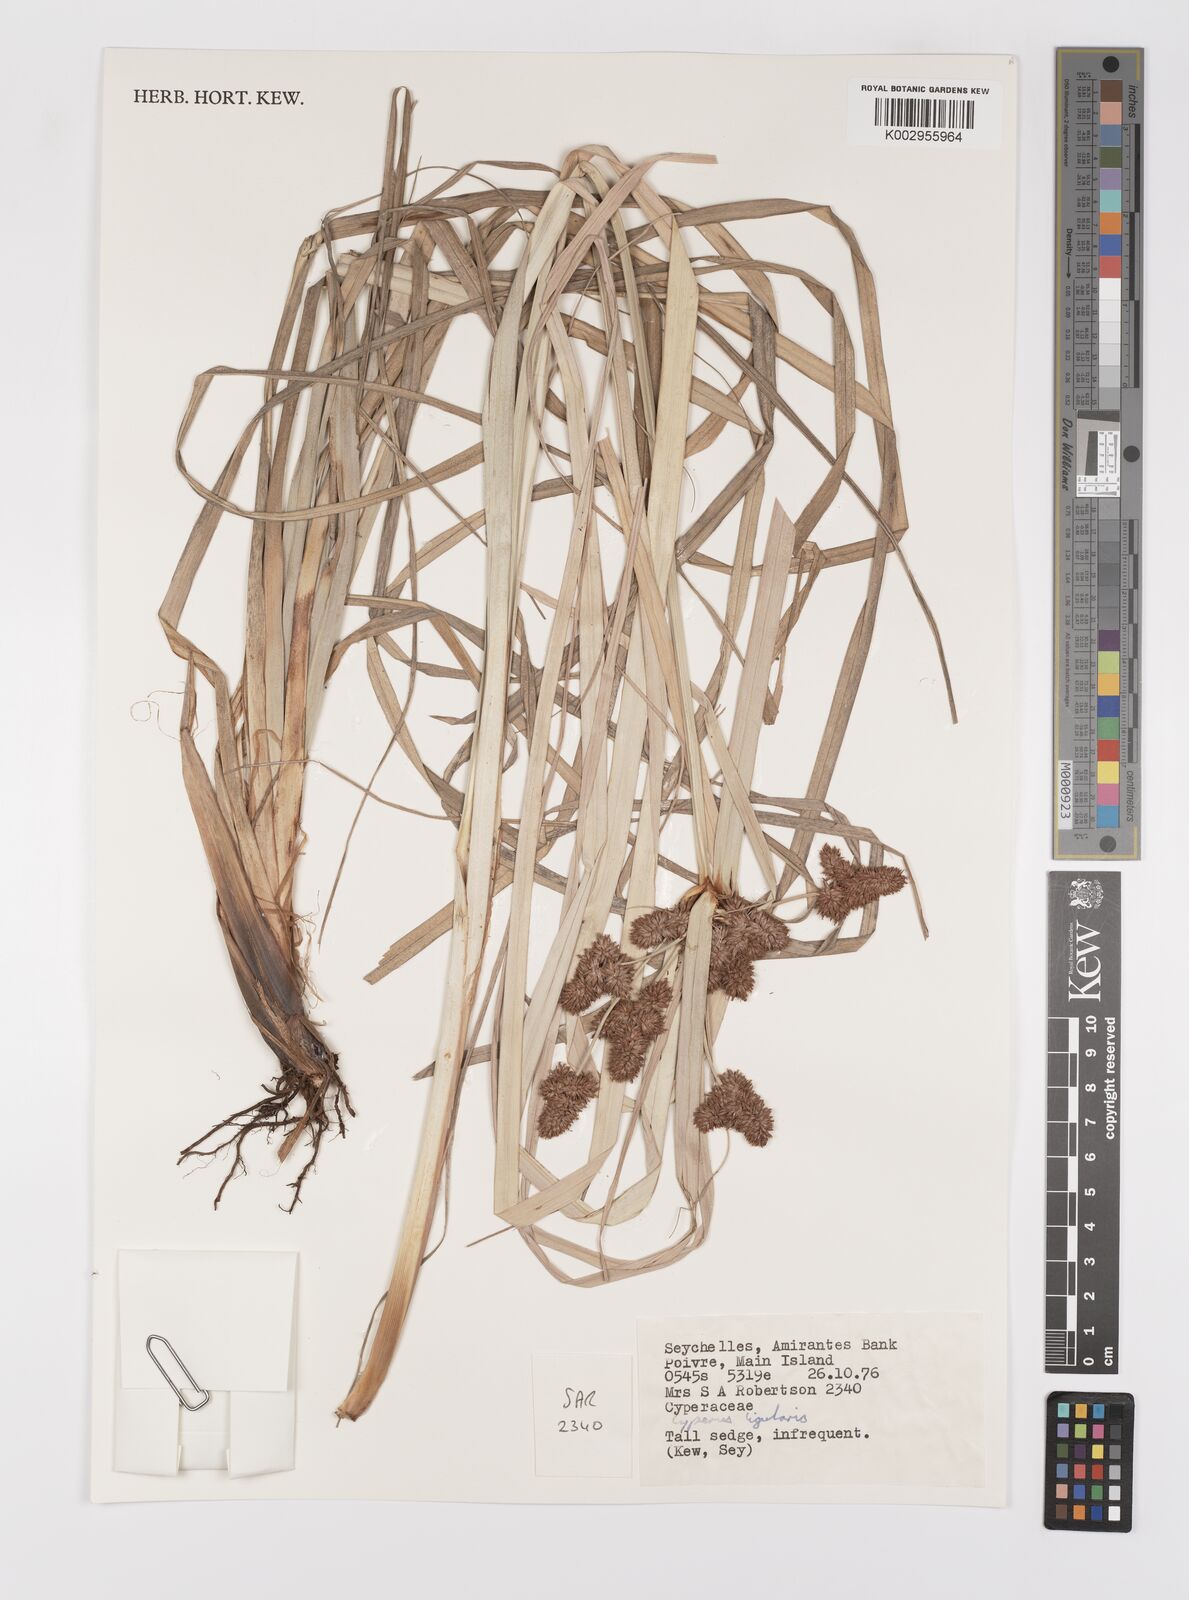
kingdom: Plantae
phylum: Tracheophyta
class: Liliopsida
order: Poales
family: Cyperaceae
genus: Cyperus
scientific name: Cyperus ligularis
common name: Swamp flat sedge
